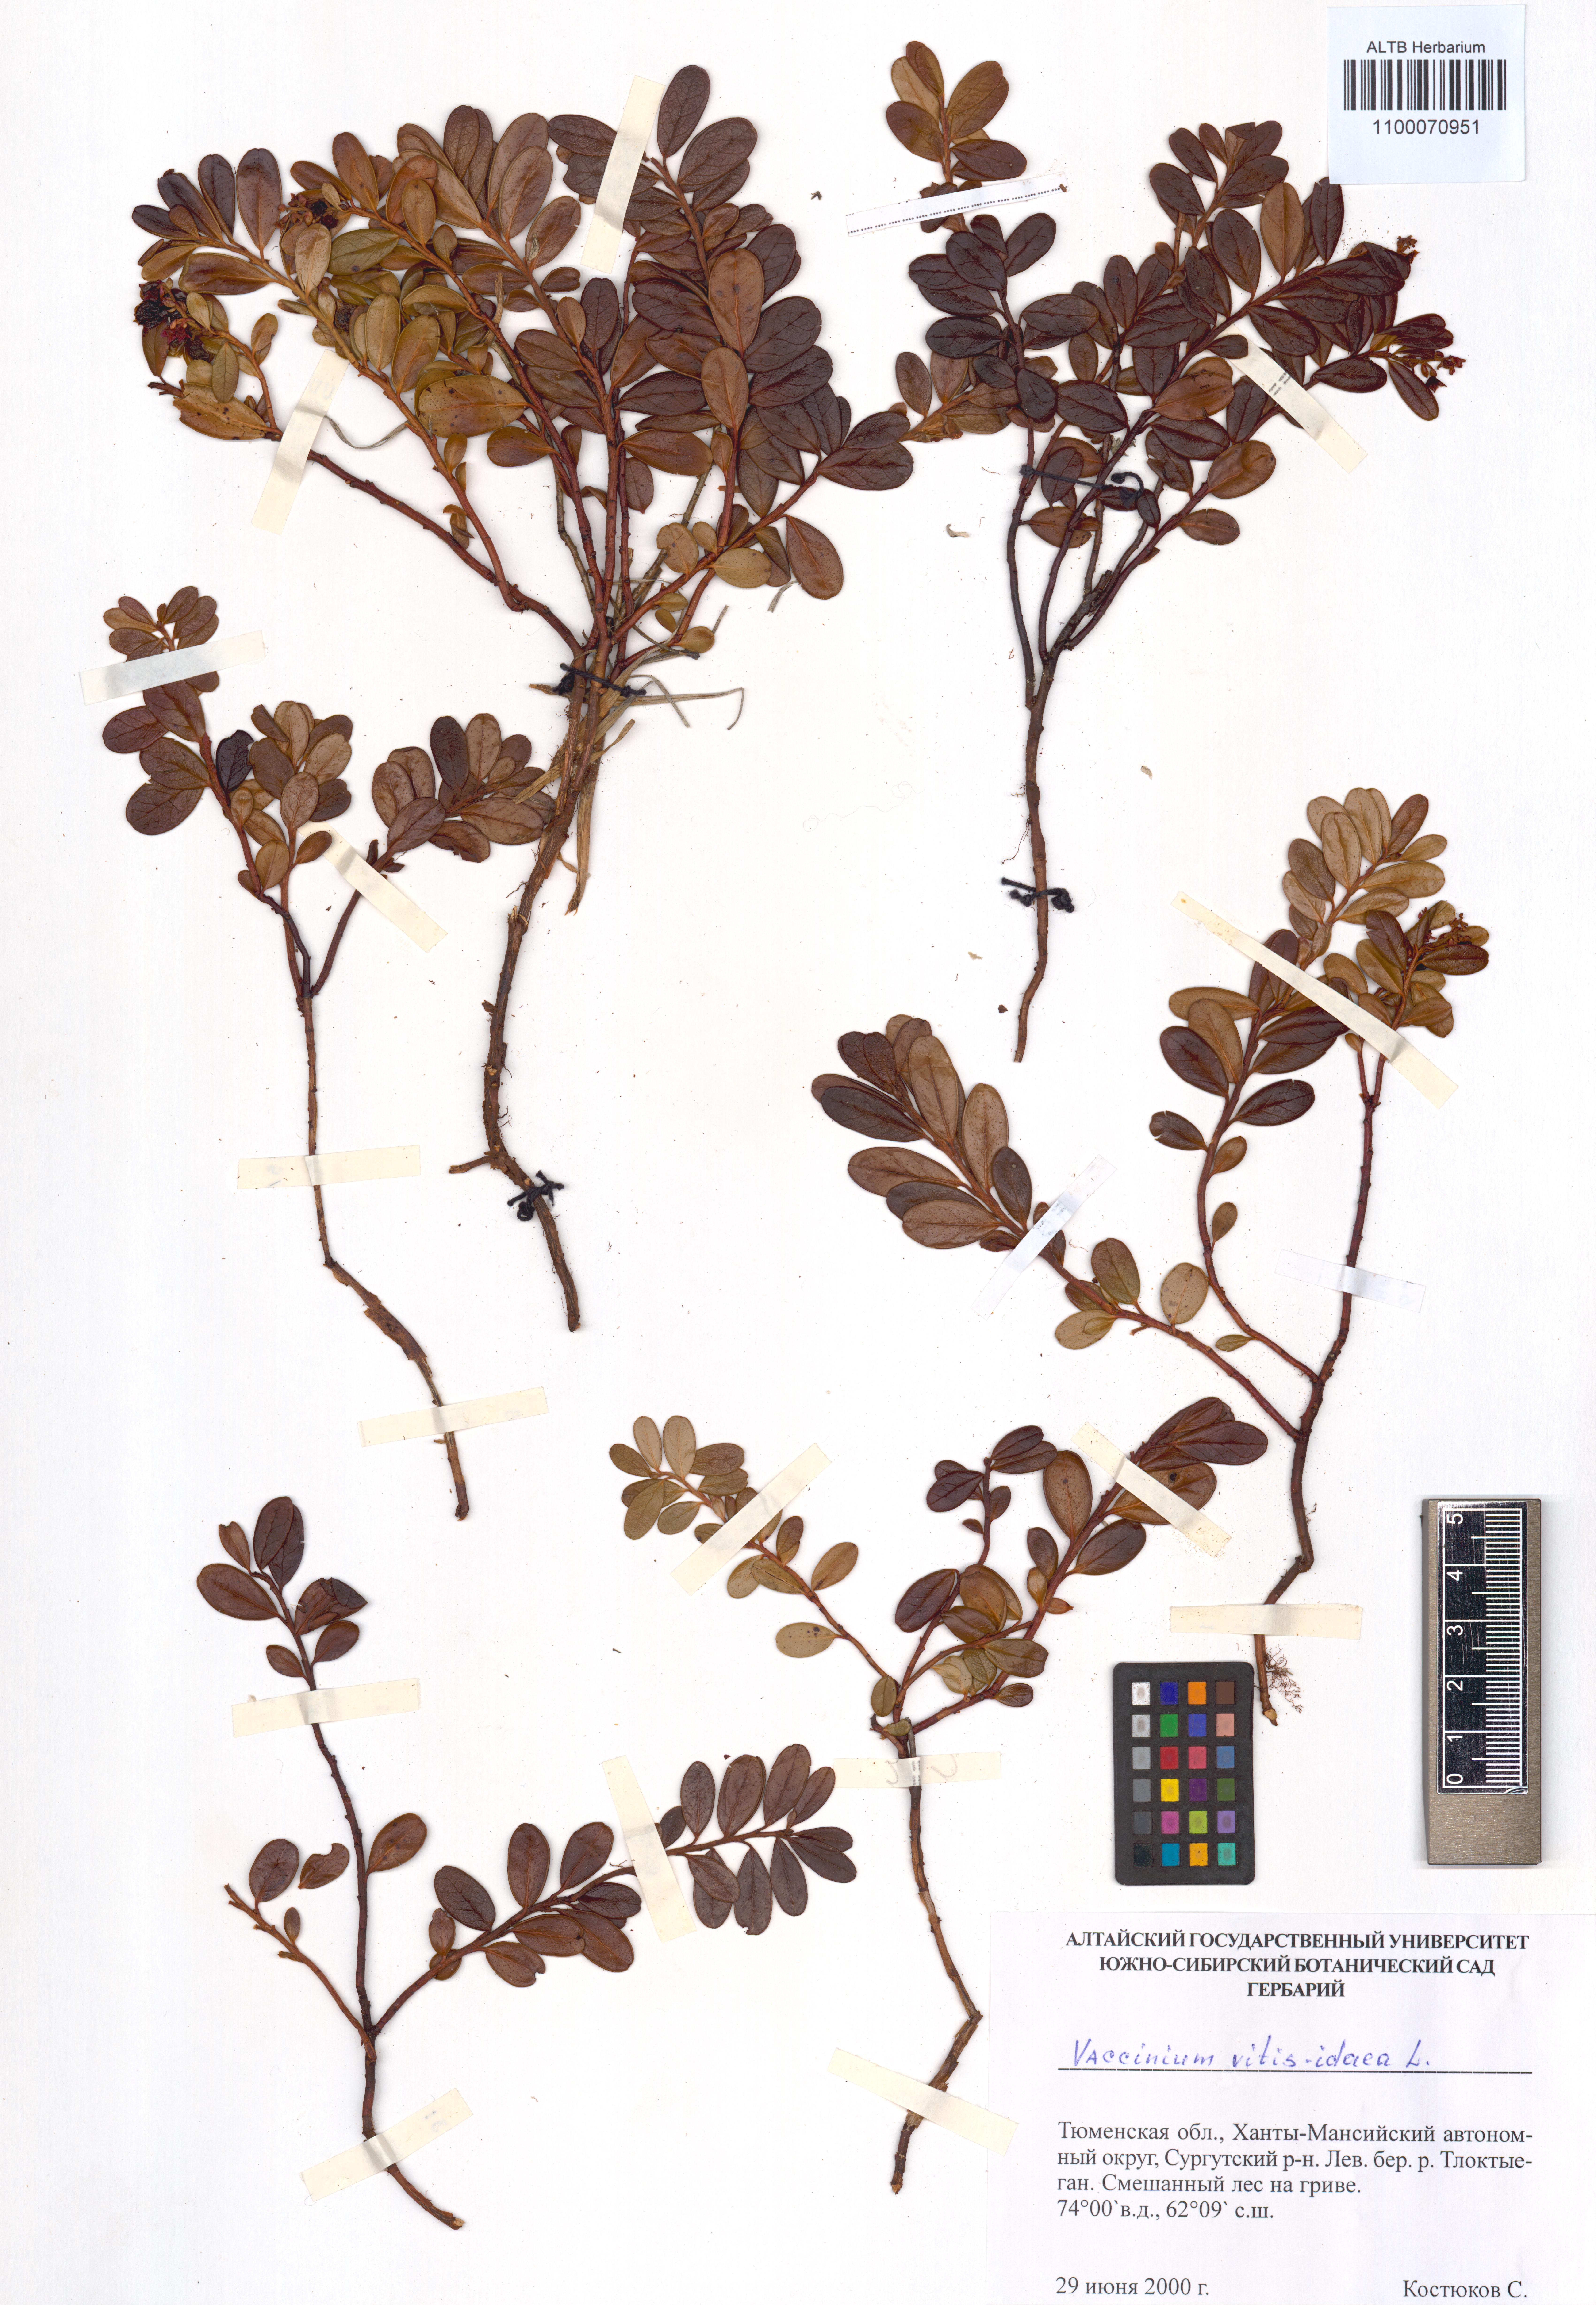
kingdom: Plantae
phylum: Tracheophyta
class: Magnoliopsida
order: Ericales
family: Ericaceae
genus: Vaccinium
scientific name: Vaccinium vitis-idaea
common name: Cowberry
